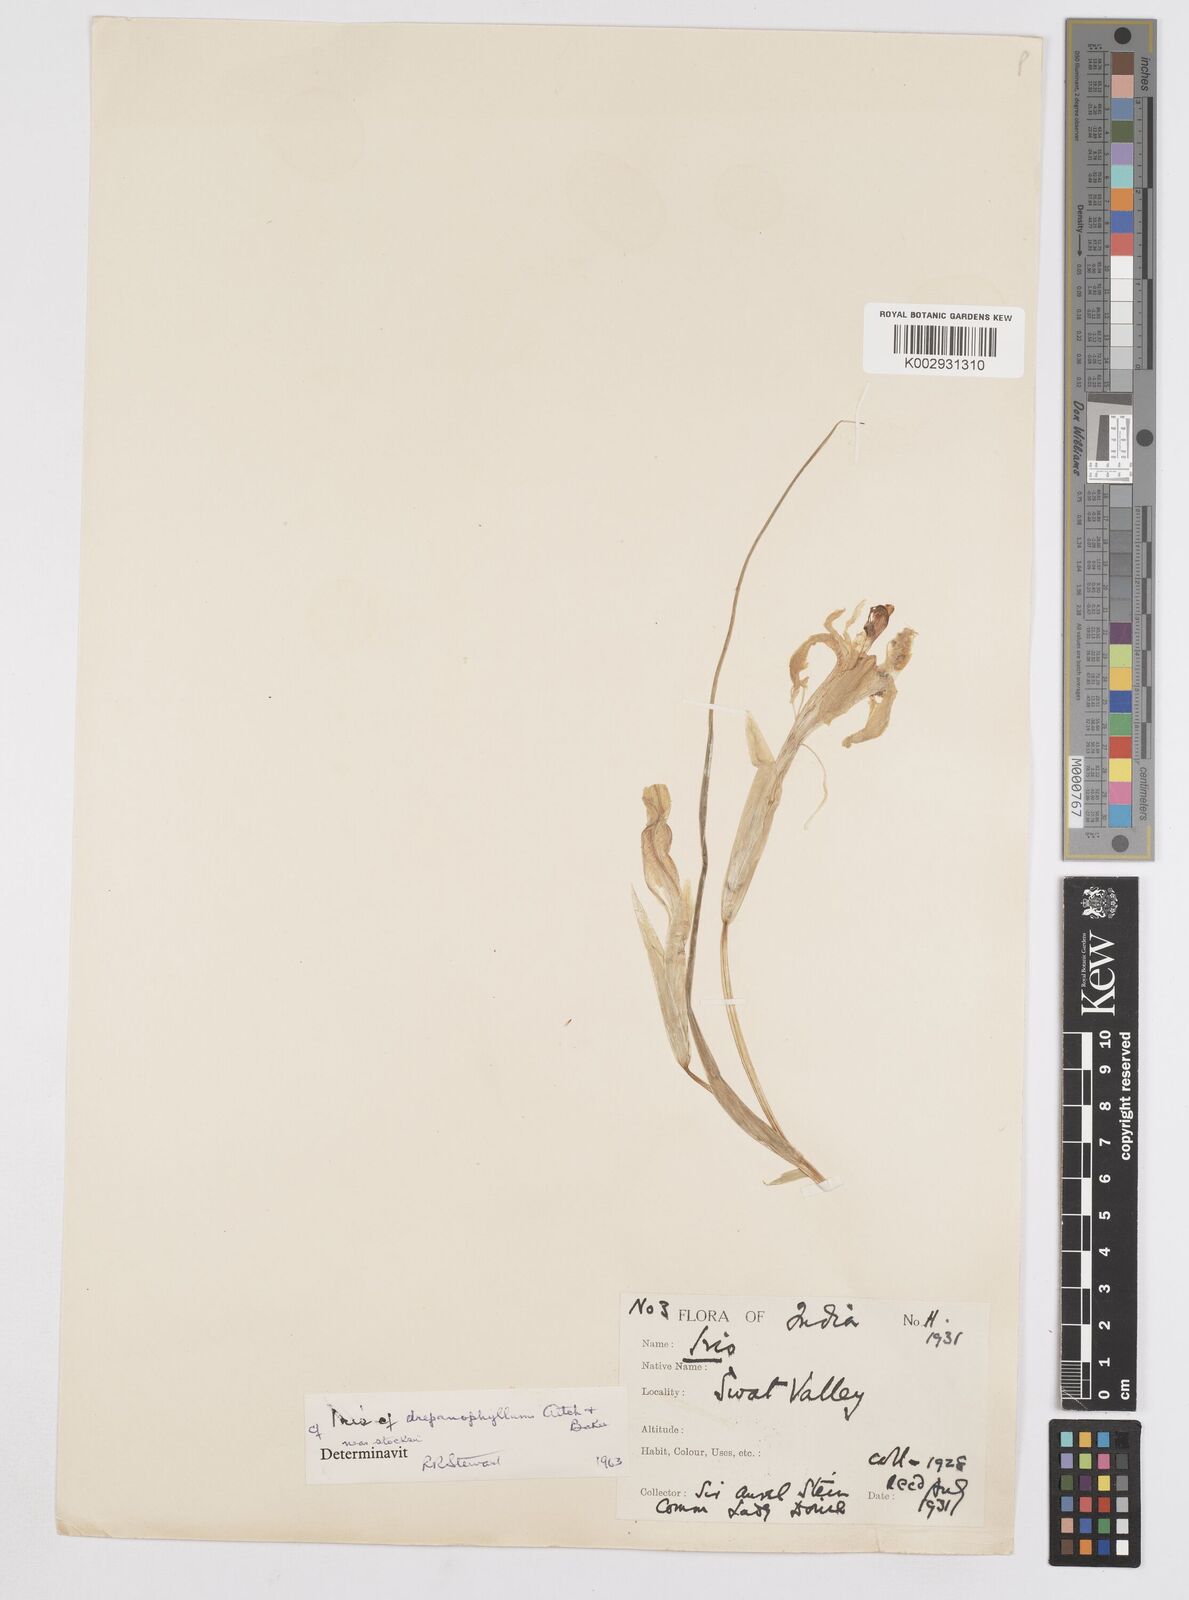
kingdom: Plantae
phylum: Tracheophyta
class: Liliopsida
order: Asparagales
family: Iridaceae
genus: Iris
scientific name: Iris aitchisonii
